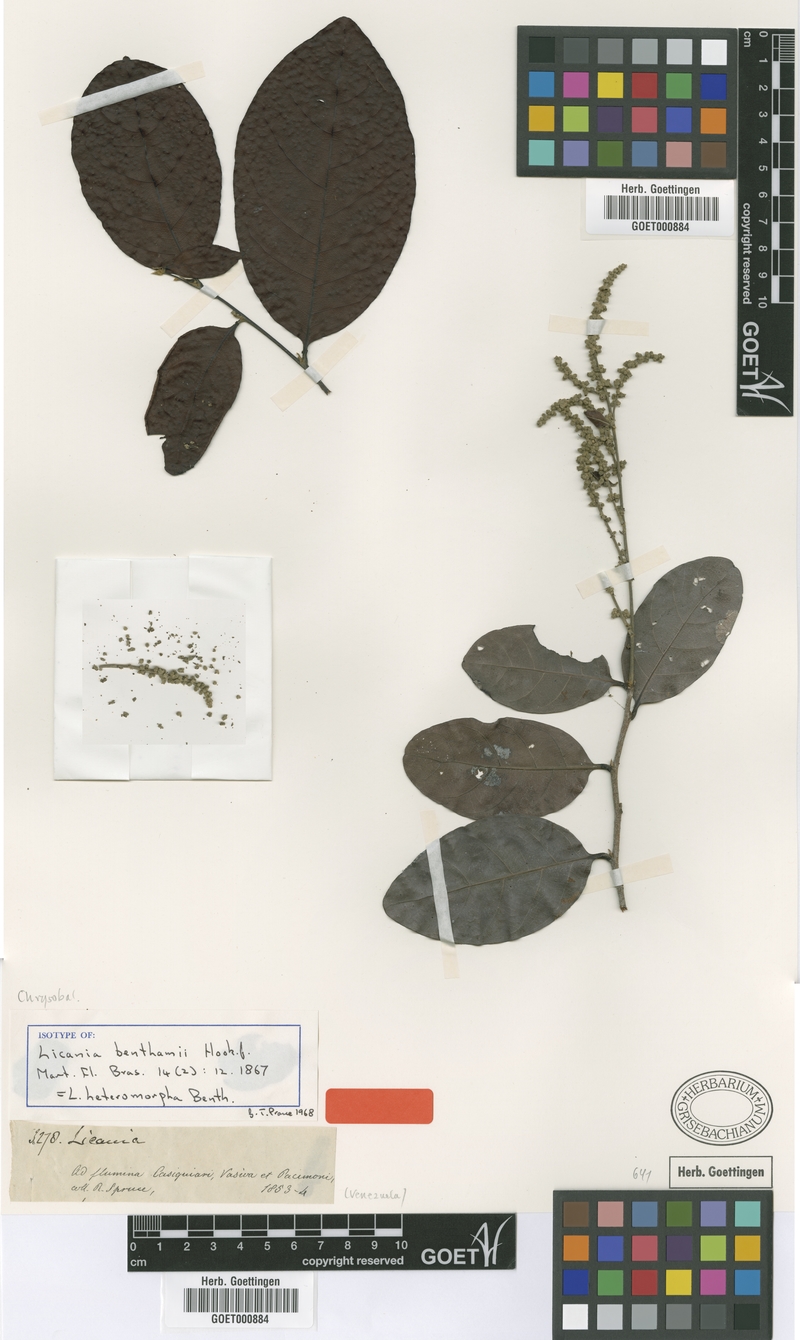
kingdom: Plantae
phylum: Tracheophyta
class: Magnoliopsida
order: Malpighiales
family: Chrysobalanaceae
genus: Hymenopus
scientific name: Hymenopus heteromorphus
